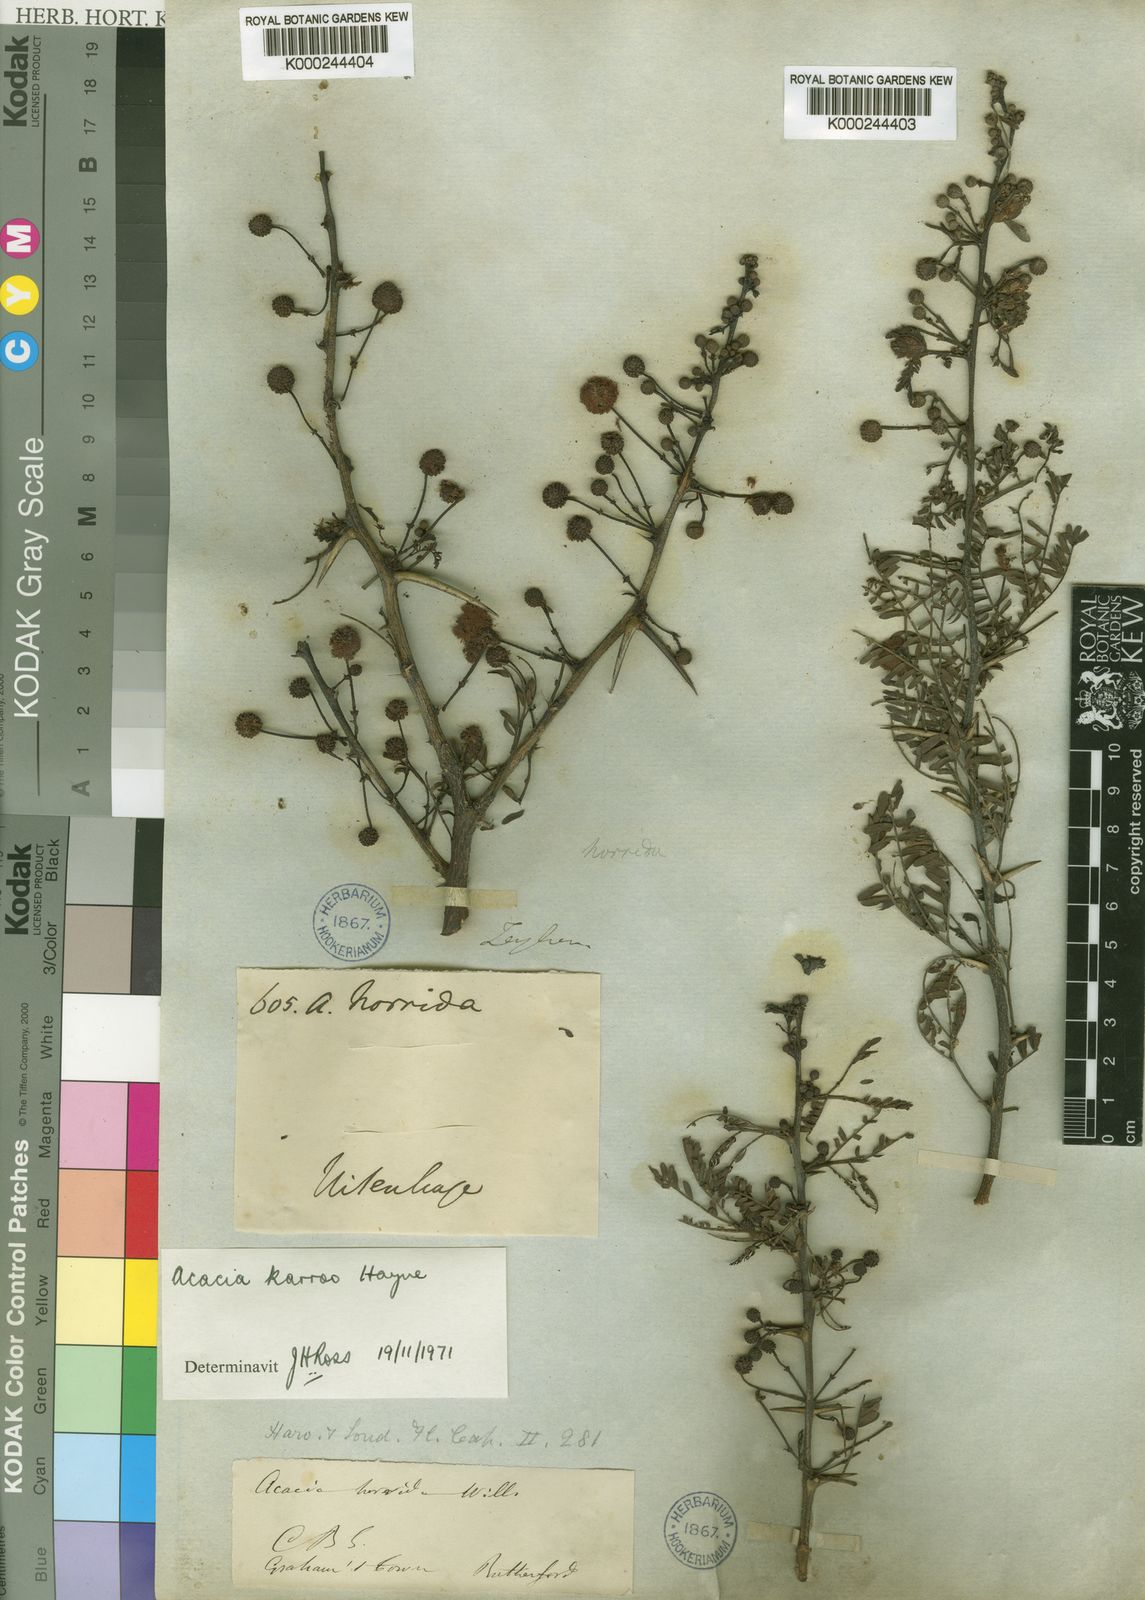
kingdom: Plantae
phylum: Tracheophyta
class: Magnoliopsida
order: Fabales
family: Fabaceae
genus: Vachellia
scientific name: Vachellia karroo
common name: Sweet thorn
